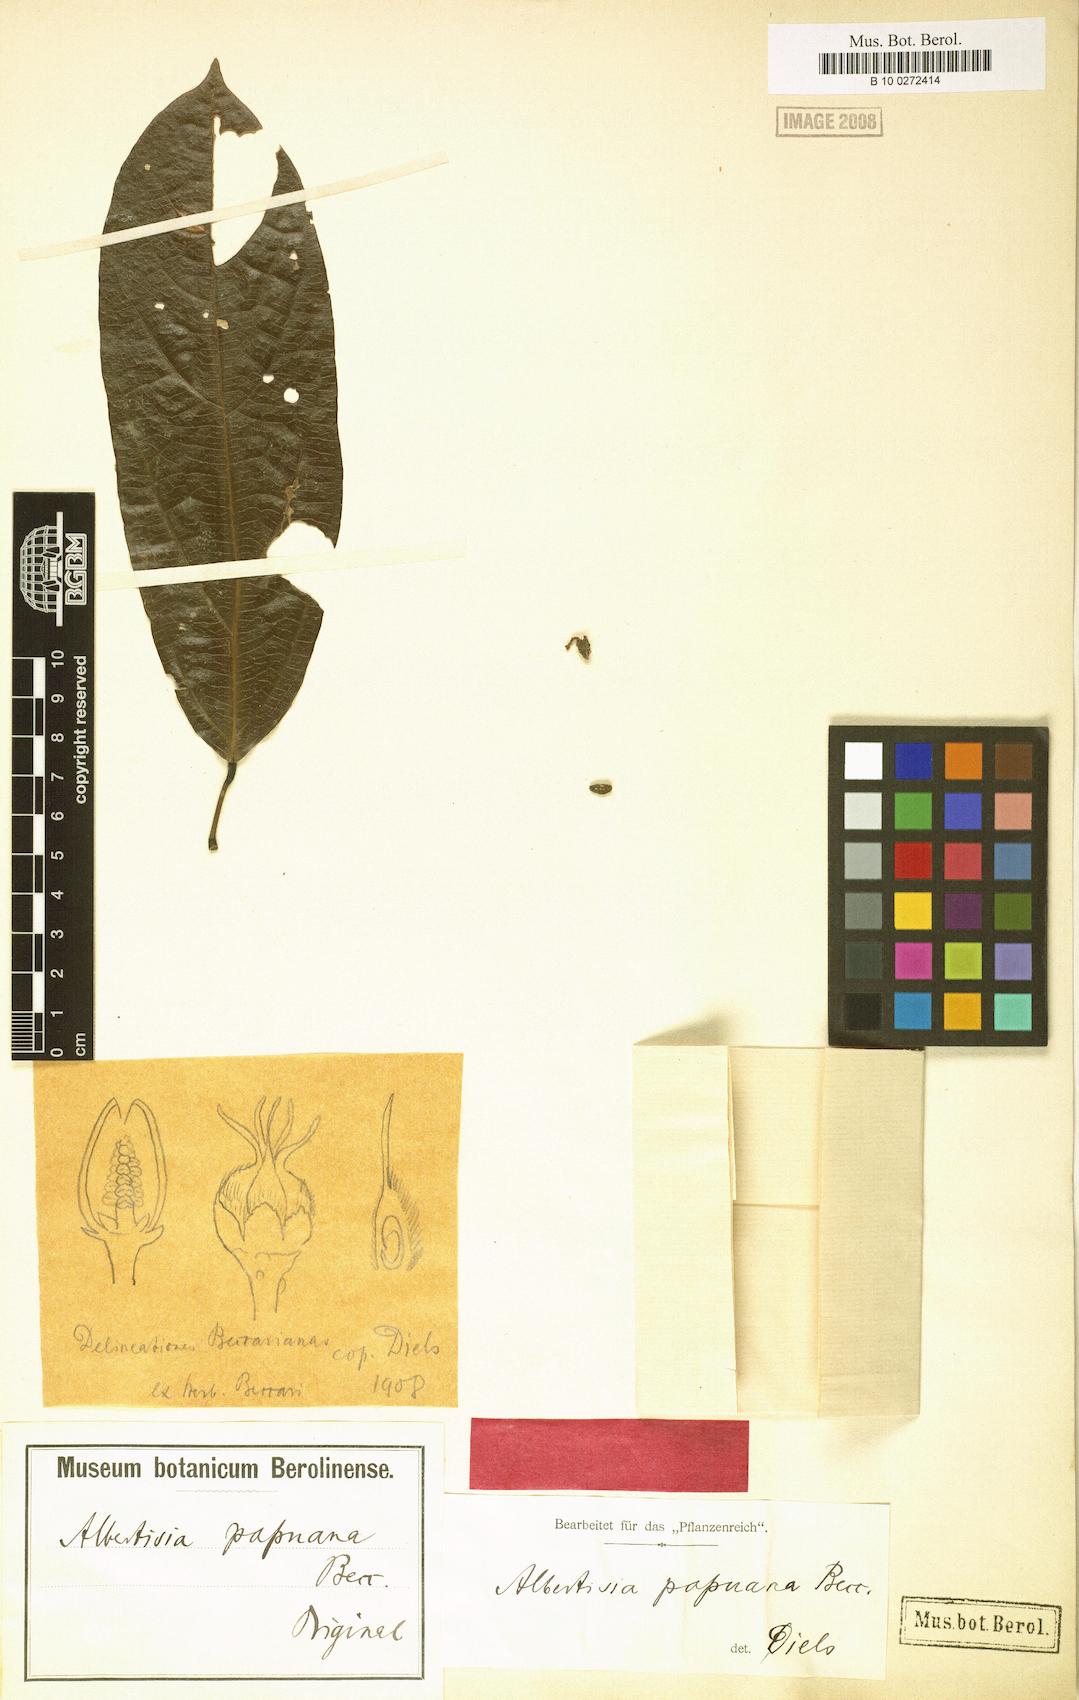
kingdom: Plantae
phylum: Tracheophyta
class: Magnoliopsida
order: Ranunculales
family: Menispermaceae
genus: Albertisia
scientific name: Albertisia papuana
